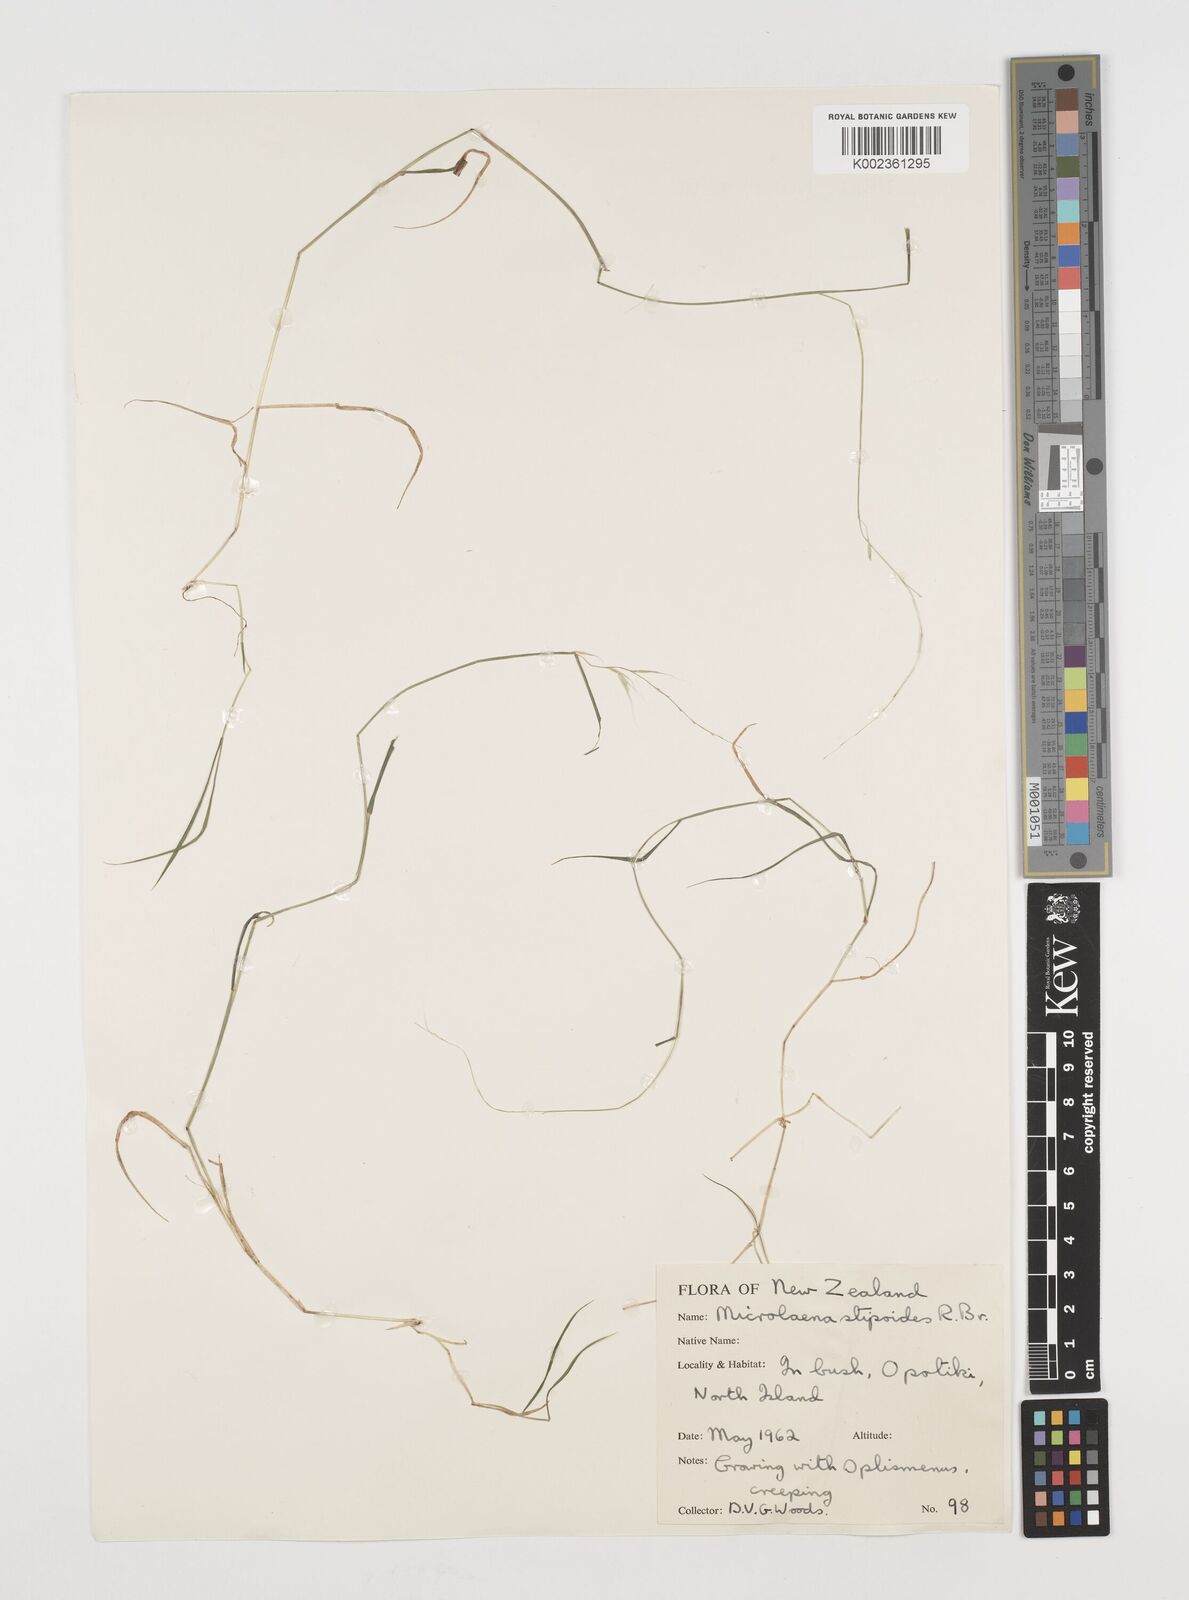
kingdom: Plantae
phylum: Tracheophyta
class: Liliopsida
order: Poales
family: Poaceae
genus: Microlaena
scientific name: Microlaena stipoides
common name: Meadow ricegrass
